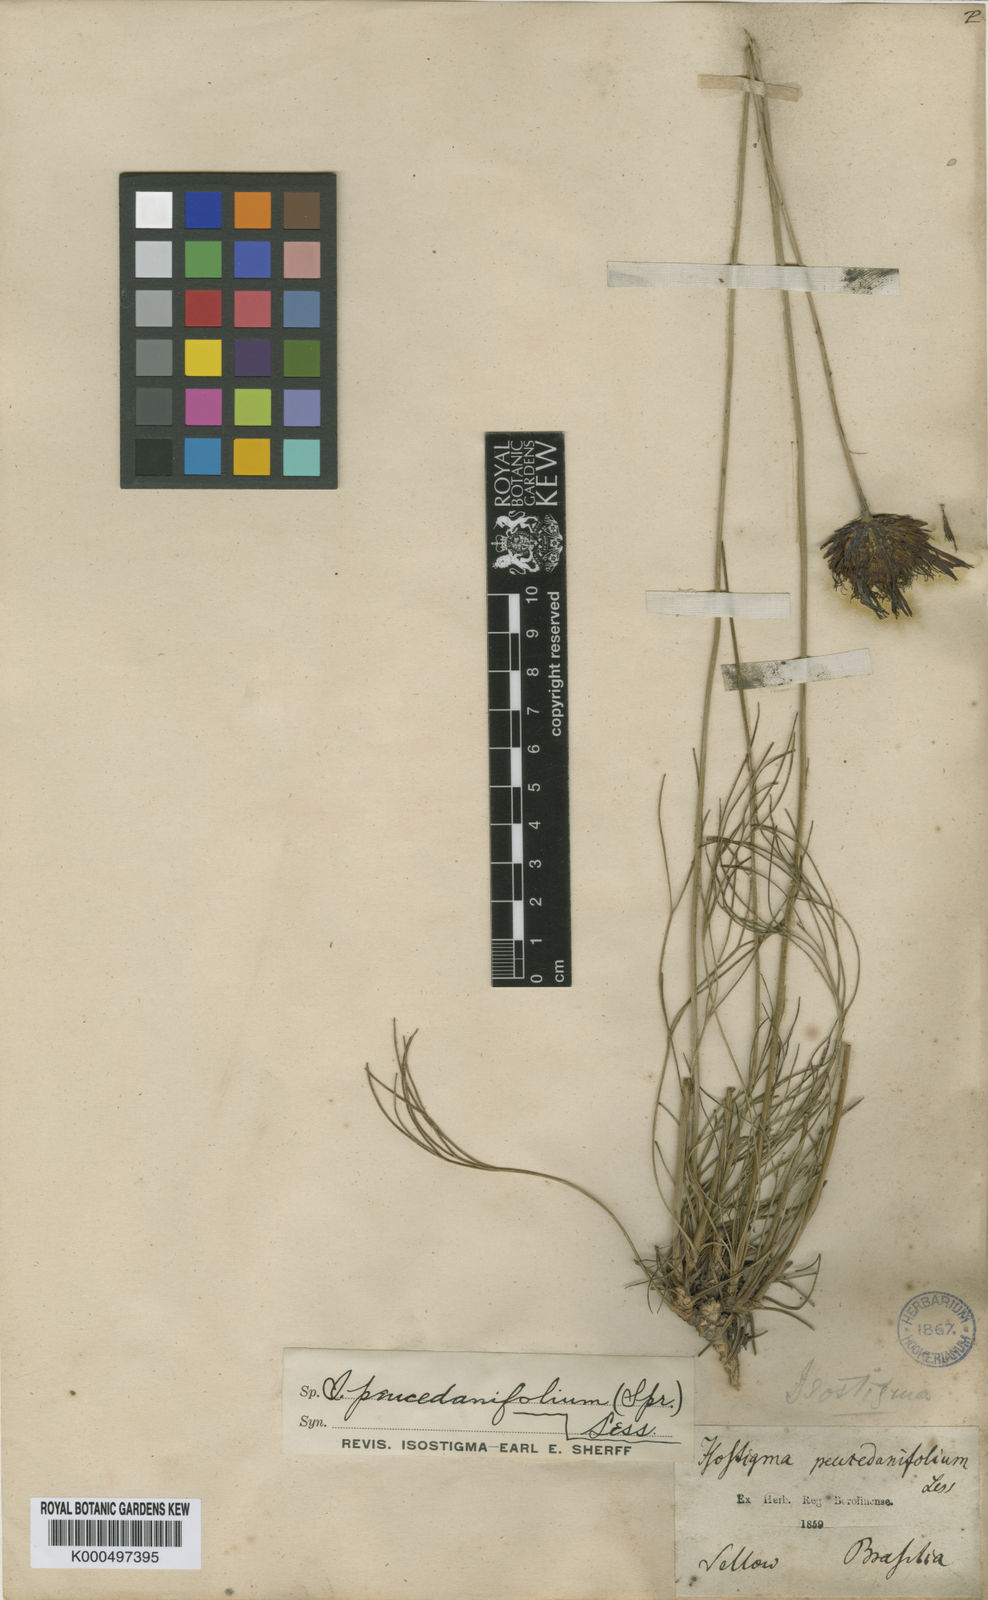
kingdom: Plantae
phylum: Tracheophyta
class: Magnoliopsida
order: Asterales
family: Asteraceae
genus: Isostigma
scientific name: Isostigma peucedanifolium
